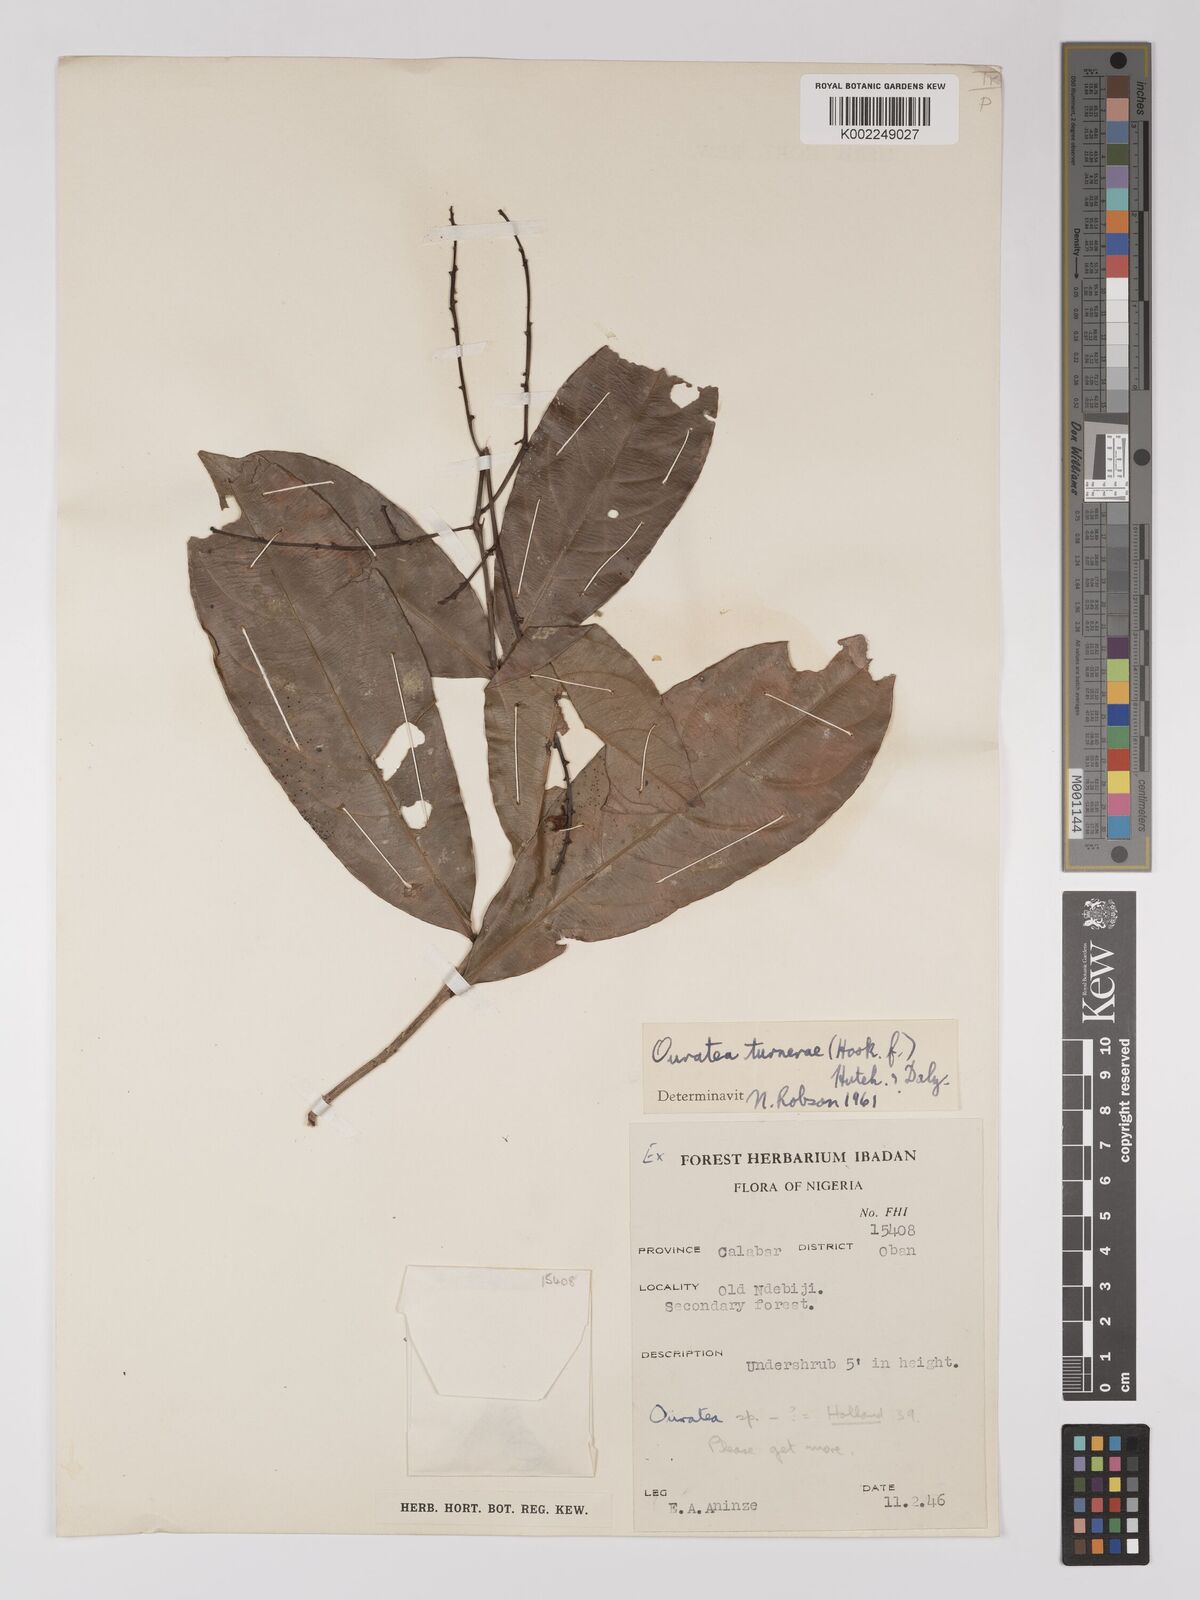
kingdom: Plantae
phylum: Tracheophyta
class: Magnoliopsida
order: Malpighiales
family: Ochnaceae
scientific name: Ochnaceae
